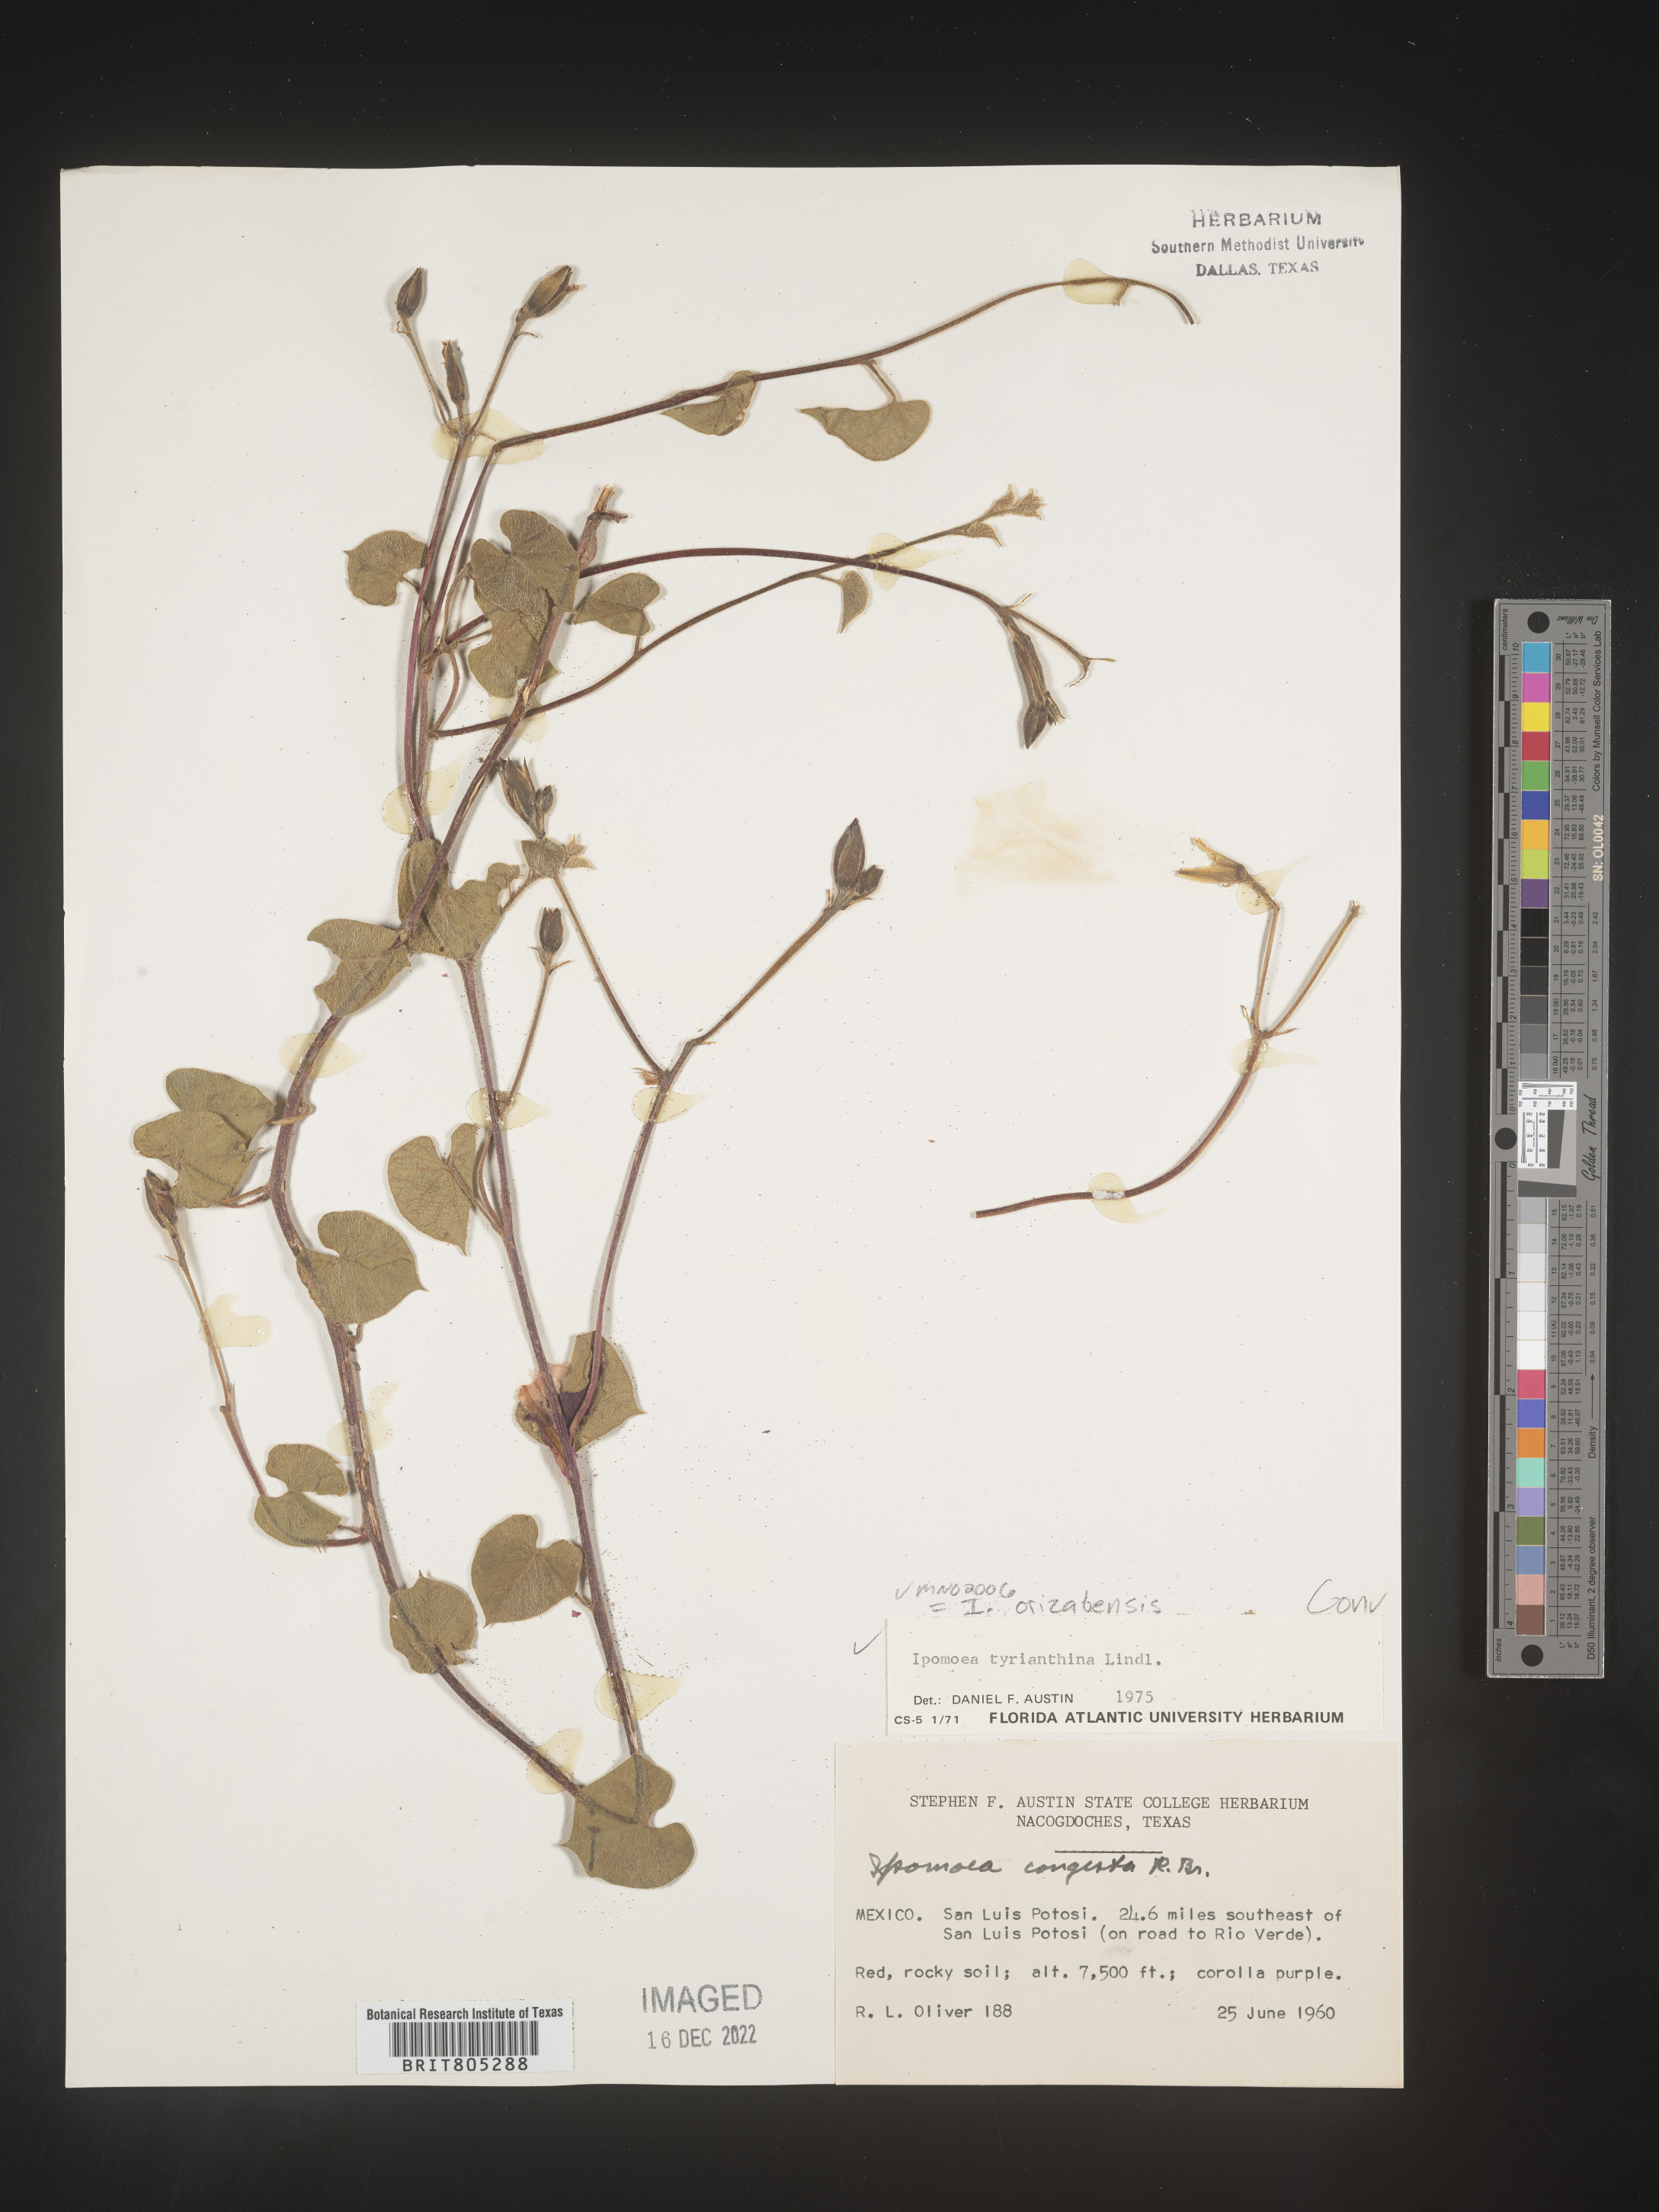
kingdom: Plantae
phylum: Tracheophyta
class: Magnoliopsida
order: Solanales
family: Convolvulaceae
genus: Ipomoea
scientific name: Ipomoea
